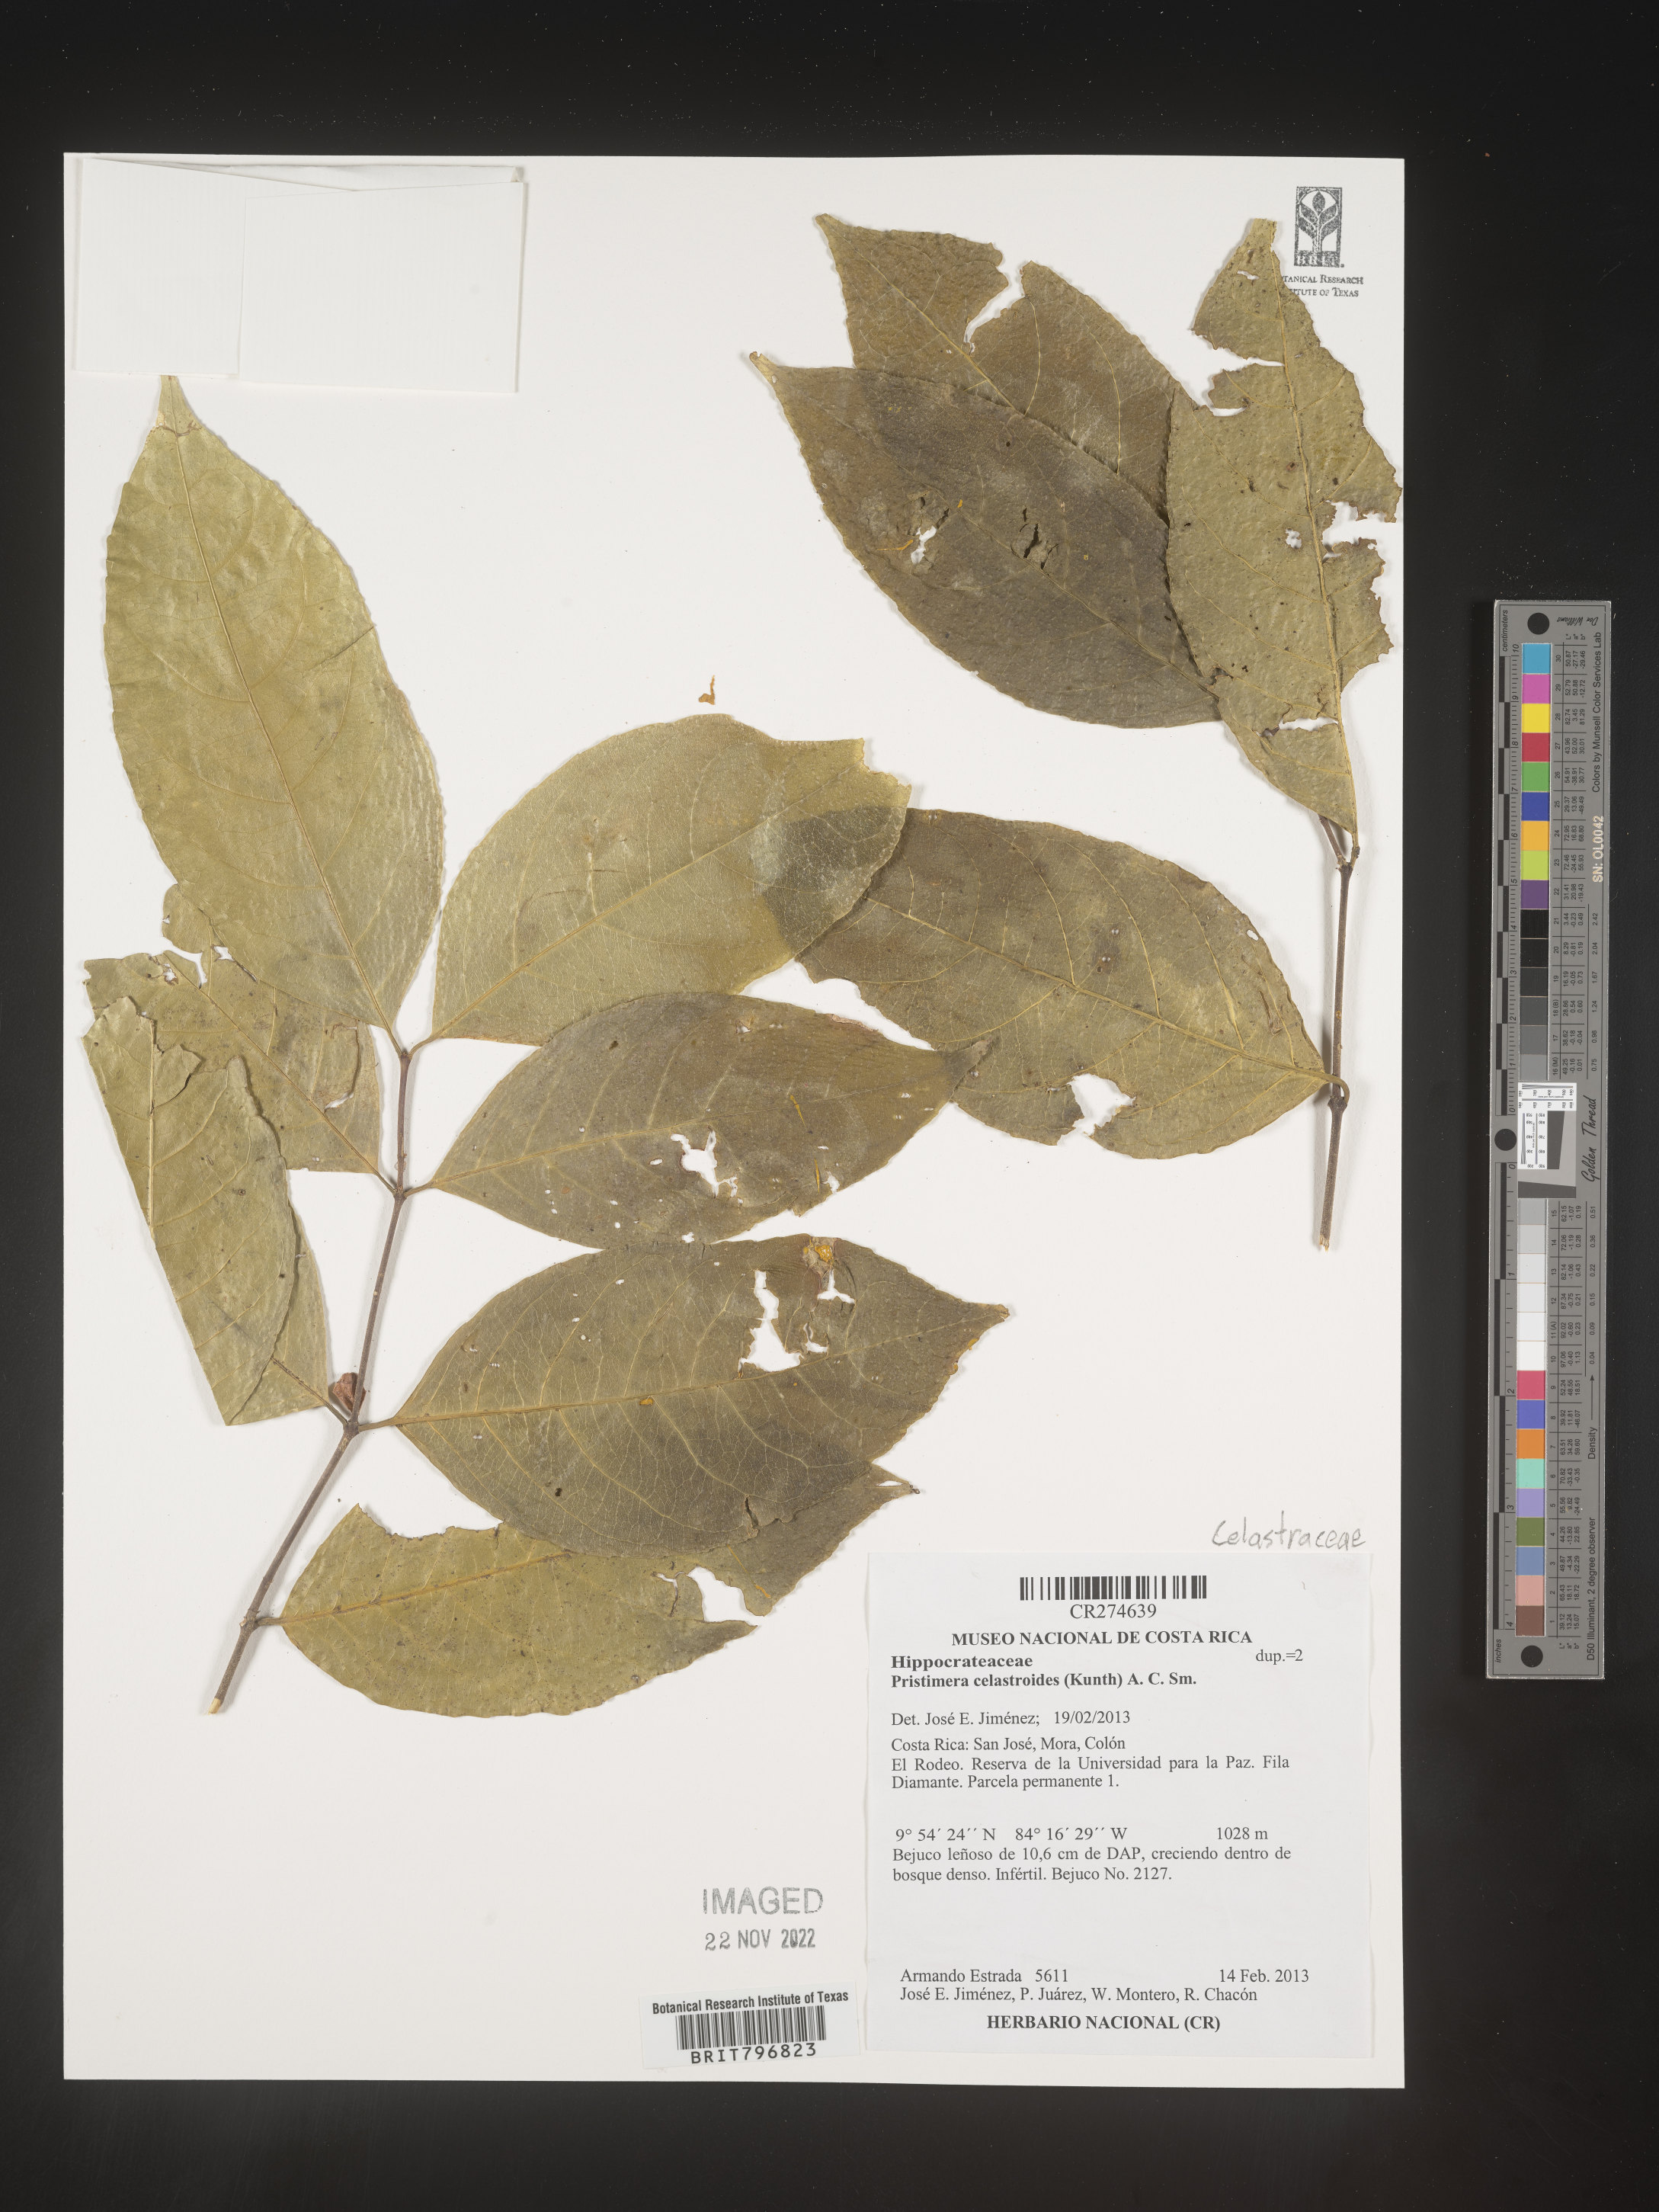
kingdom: Plantae
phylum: Tracheophyta
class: Magnoliopsida
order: Celastrales
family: Celastraceae
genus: Pristimera
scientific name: Pristimera celastroides
